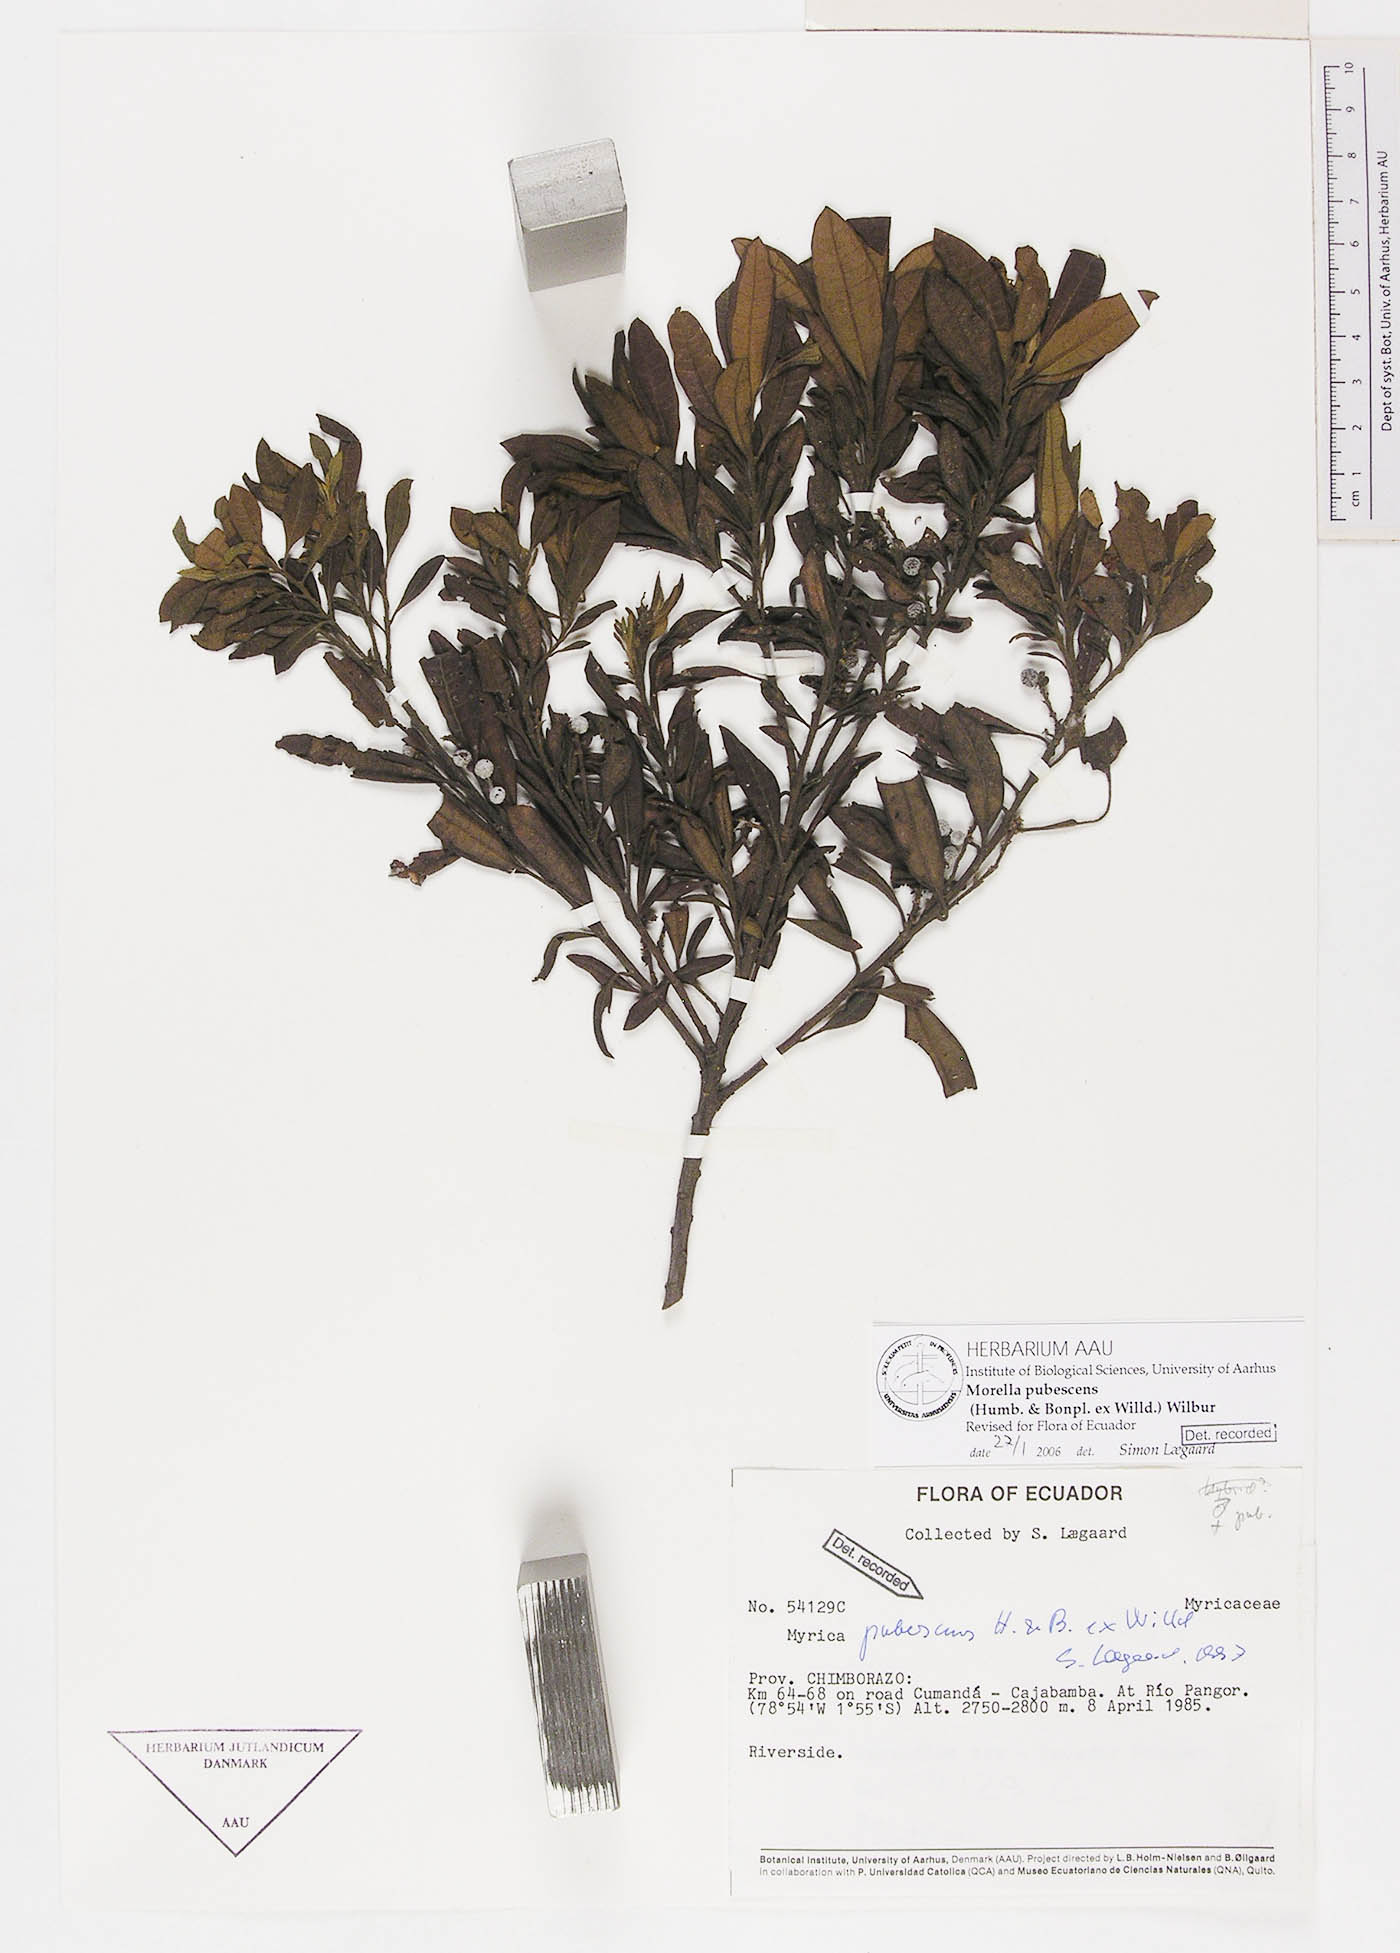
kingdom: Plantae
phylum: Tracheophyta
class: Magnoliopsida
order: Fagales
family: Myricaceae
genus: Morella
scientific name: Morella pubescens
